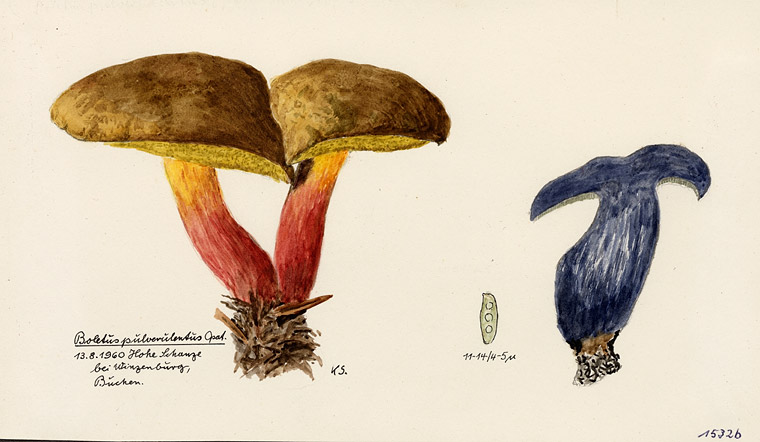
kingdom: Fungi
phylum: Basidiomycota
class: Agaricomycetes
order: Boletales
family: Boletaceae
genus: Cyanoboletus
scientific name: Cyanoboletus pulverulentus
